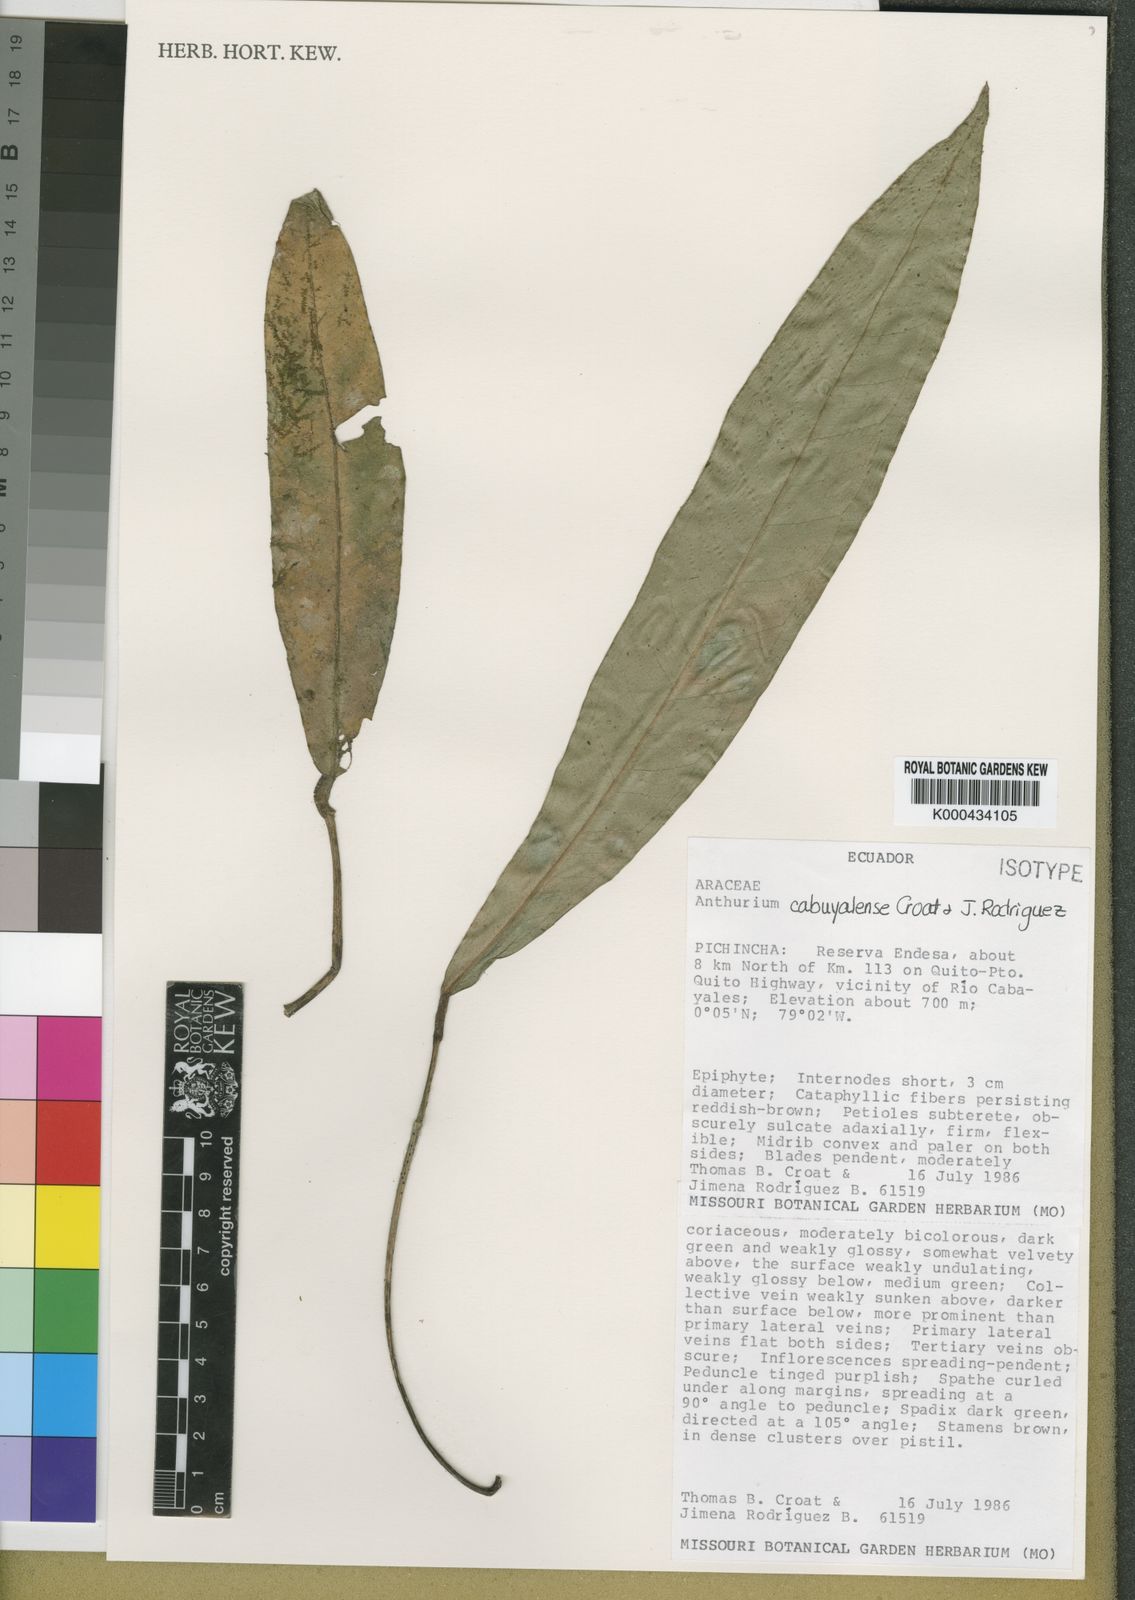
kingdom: Plantae
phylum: Tracheophyta
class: Liliopsida
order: Alismatales
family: Araceae
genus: Anthurium
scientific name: Anthurium cabuyalense
